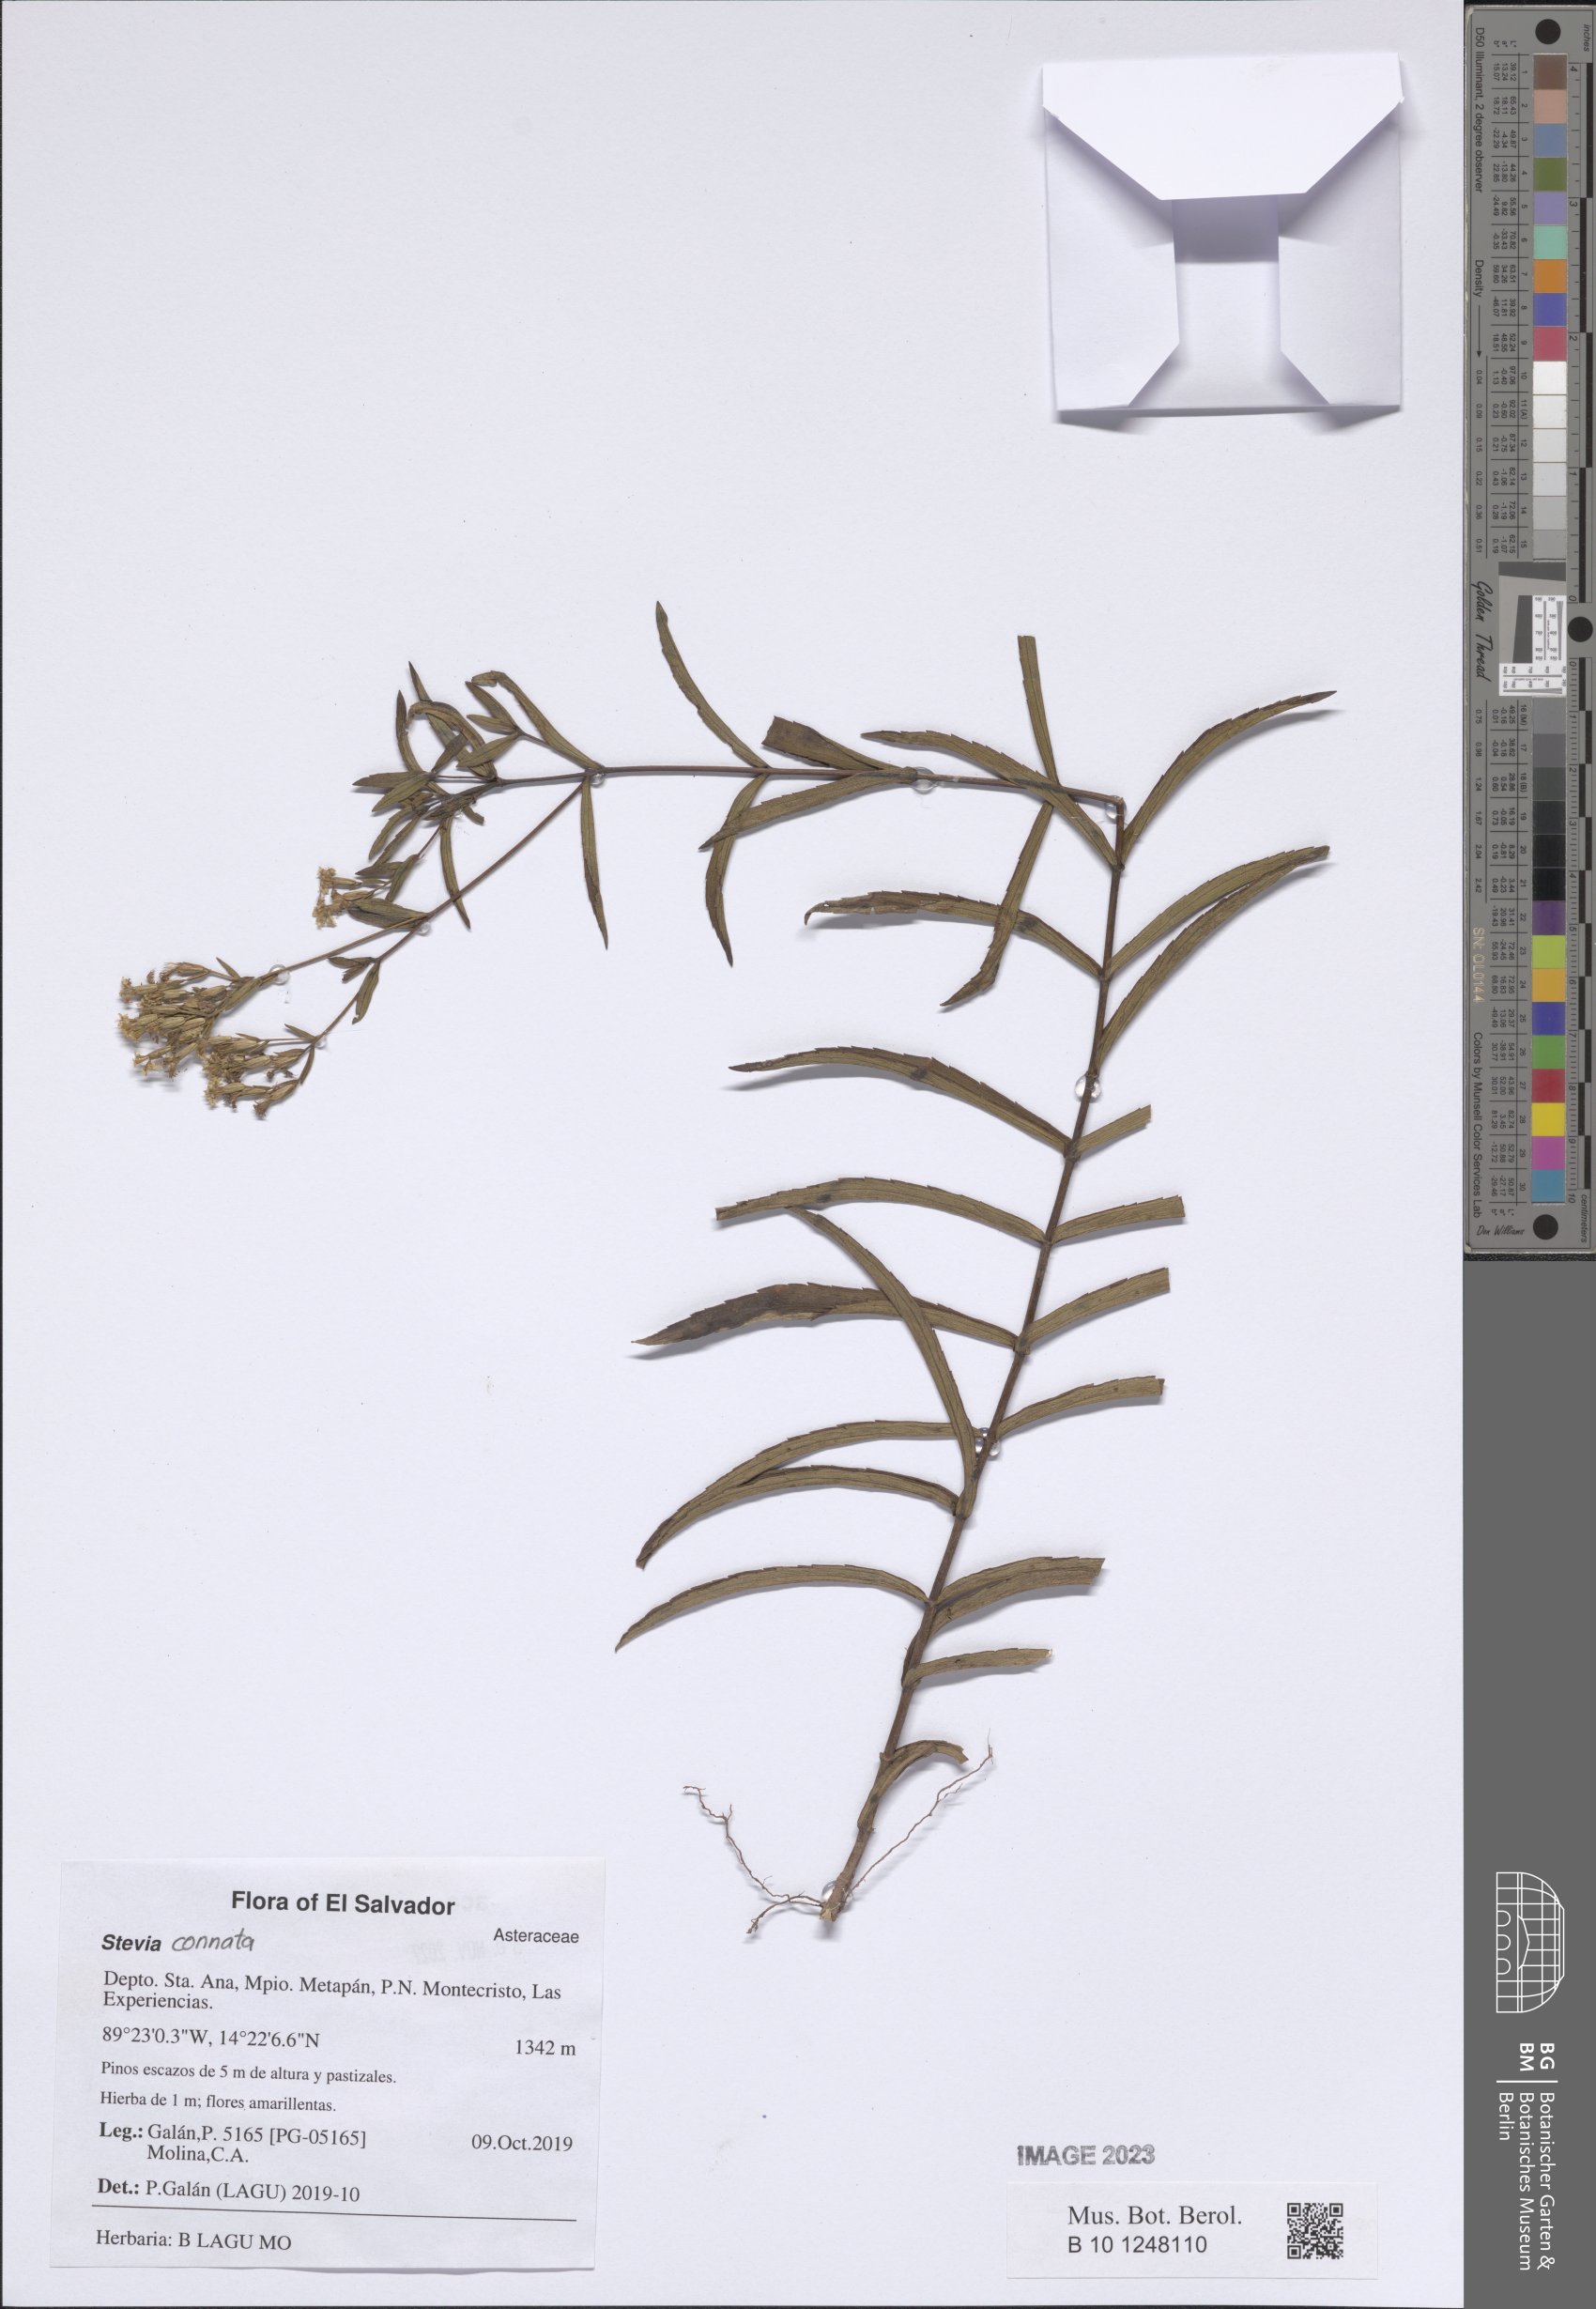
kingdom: Plantae
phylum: Tracheophyta
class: Magnoliopsida
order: Asterales
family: Asteraceae
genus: Stevia
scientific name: Stevia connata
